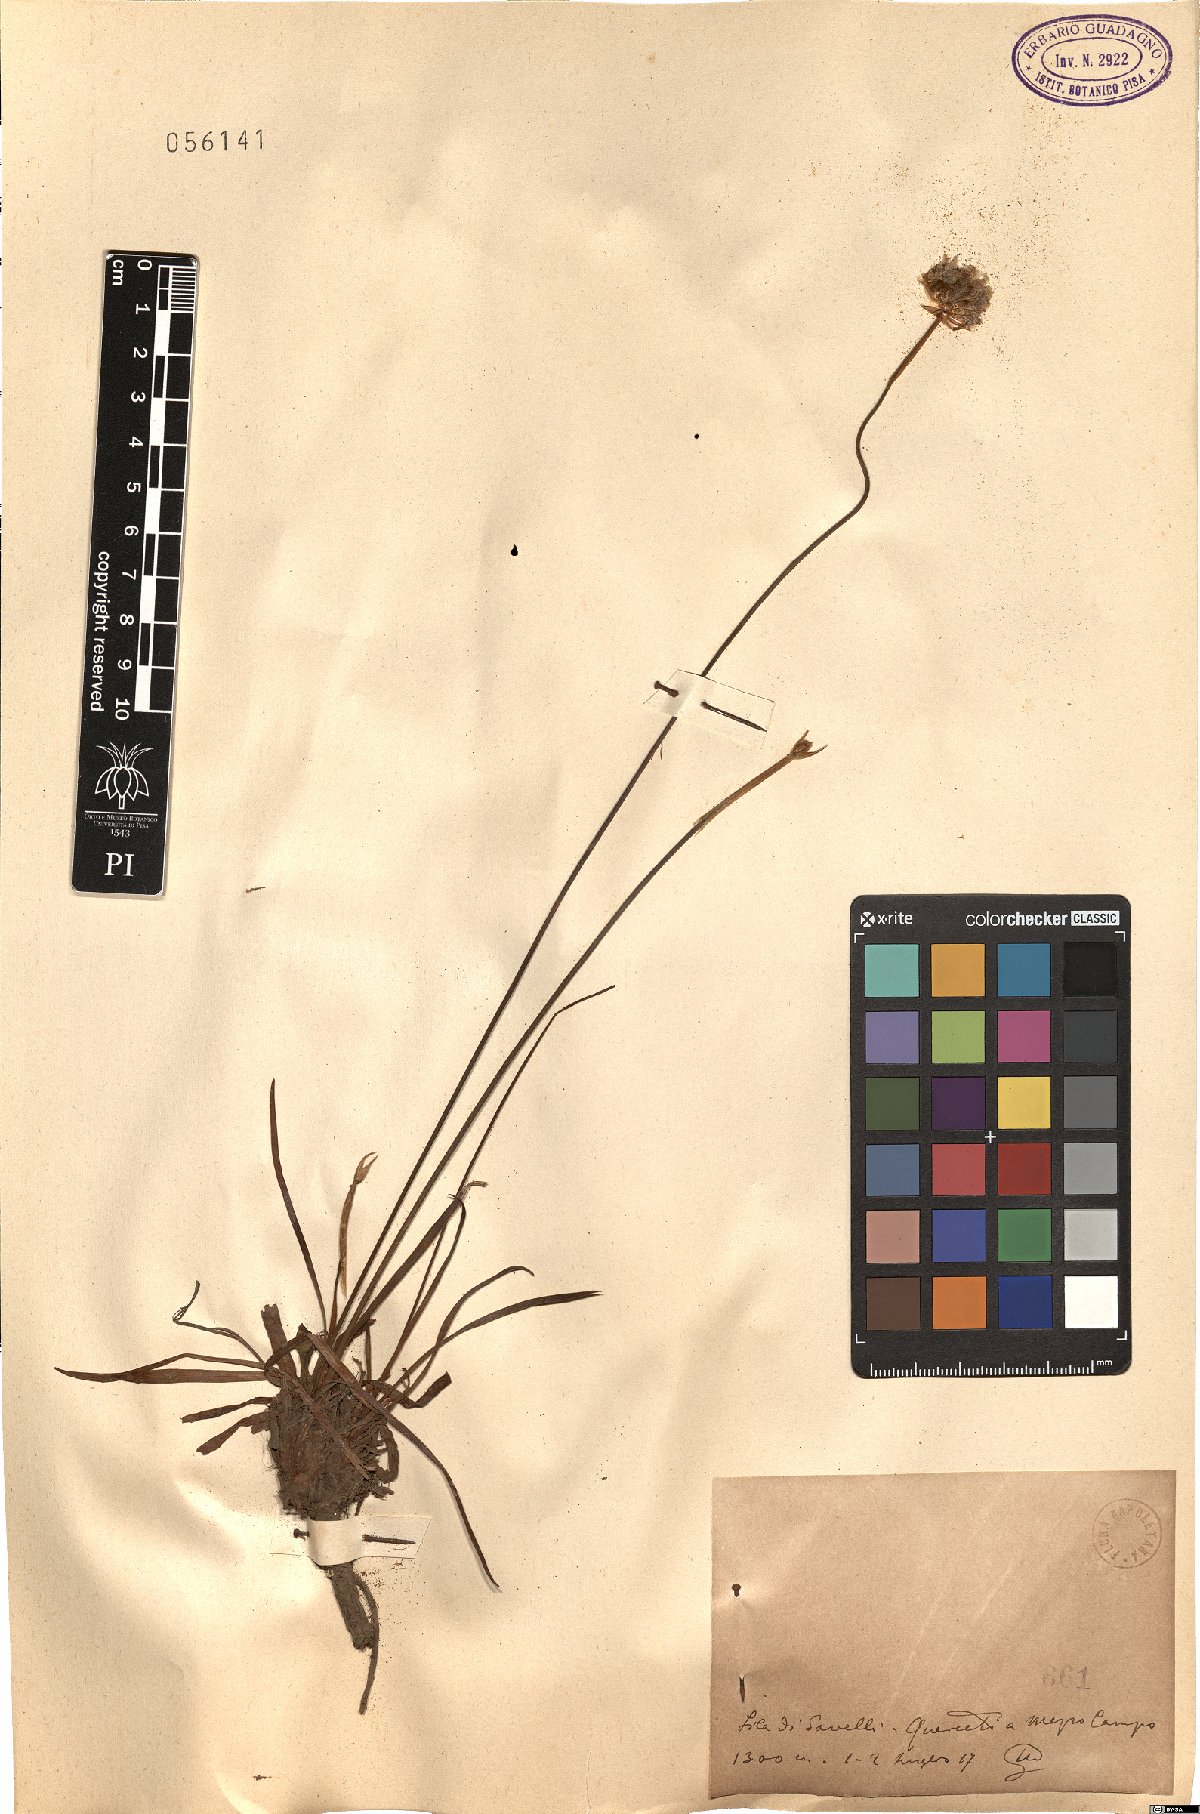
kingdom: Plantae
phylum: Tracheophyta
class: Magnoliopsida
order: Caryophyllales
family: Plumbaginaceae
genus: Armeria
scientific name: Armeria
